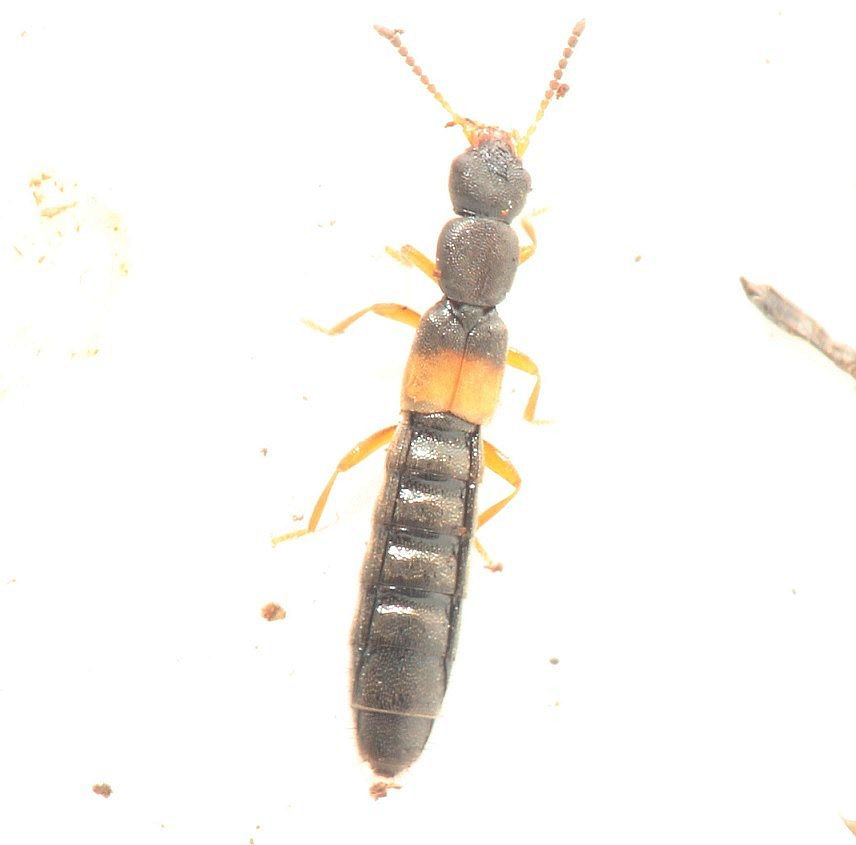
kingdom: Animalia
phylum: Arthropoda
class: Insecta
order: Coleoptera
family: Staphylinidae
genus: Hygronoma
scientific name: Hygronoma dimidiata
